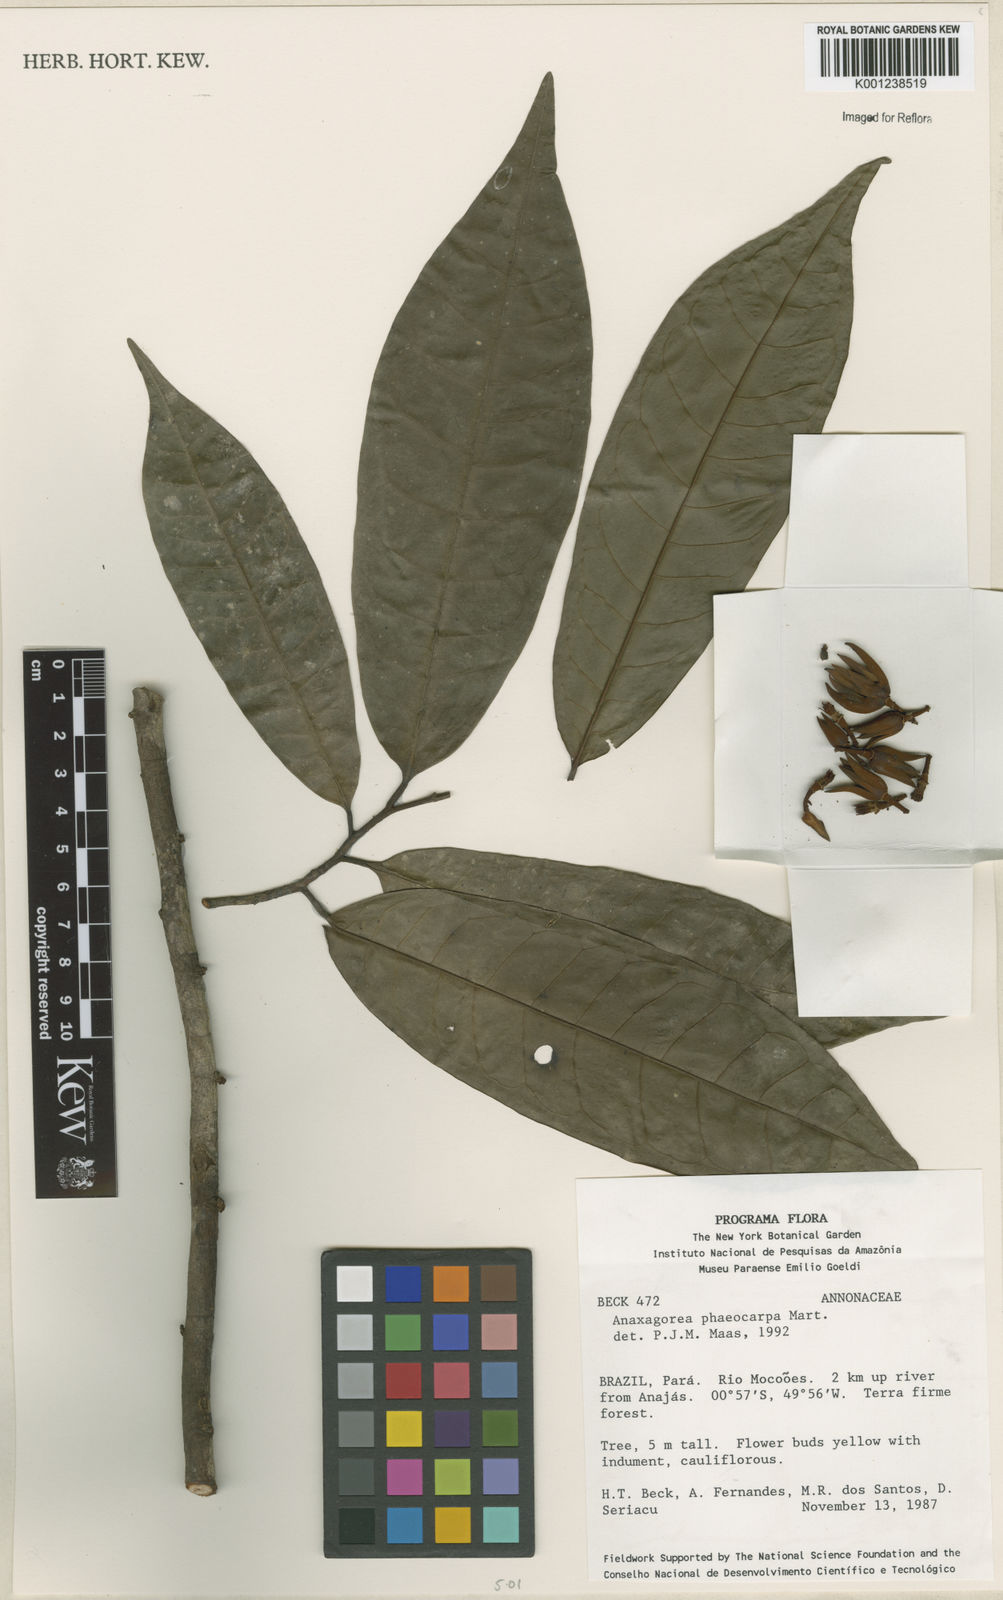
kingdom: Plantae
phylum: Tracheophyta
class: Magnoliopsida
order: Magnoliales
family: Annonaceae
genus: Anaxagorea
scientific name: Anaxagorea phaeocarpa
